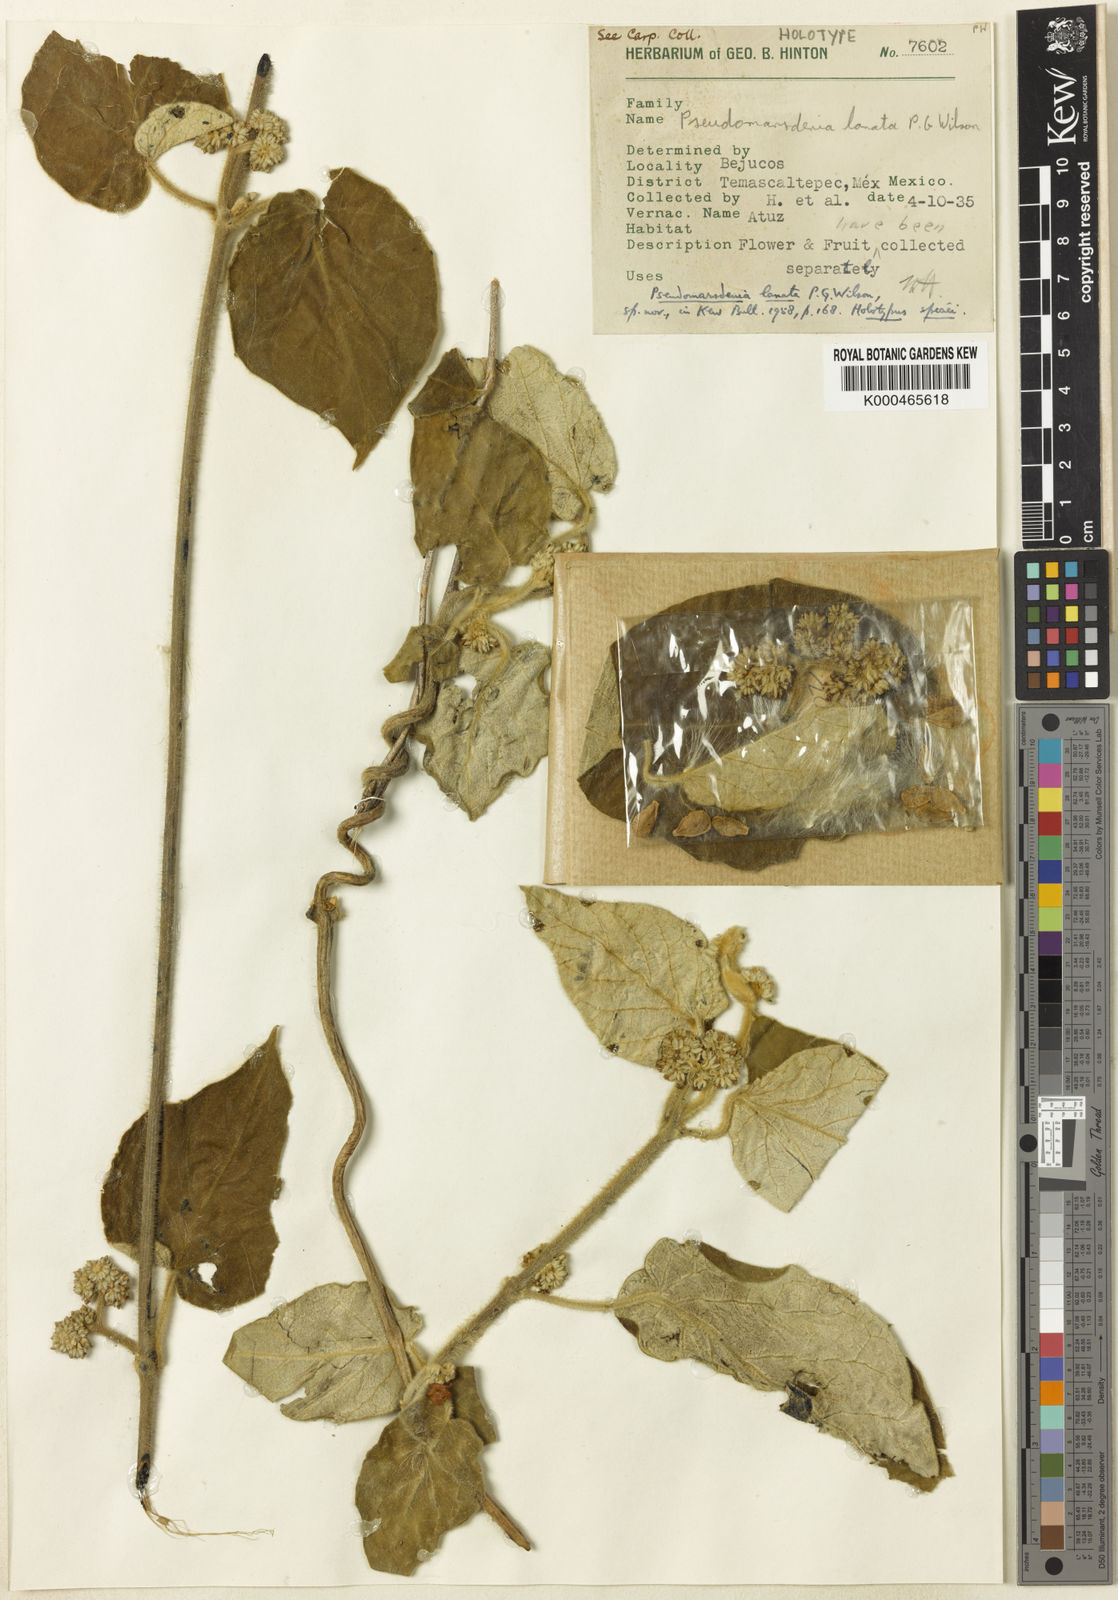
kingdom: Plantae
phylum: Tracheophyta
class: Magnoliopsida
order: Gentianales
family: Apocynaceae
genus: Ruehssia
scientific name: Ruehssia lanata
